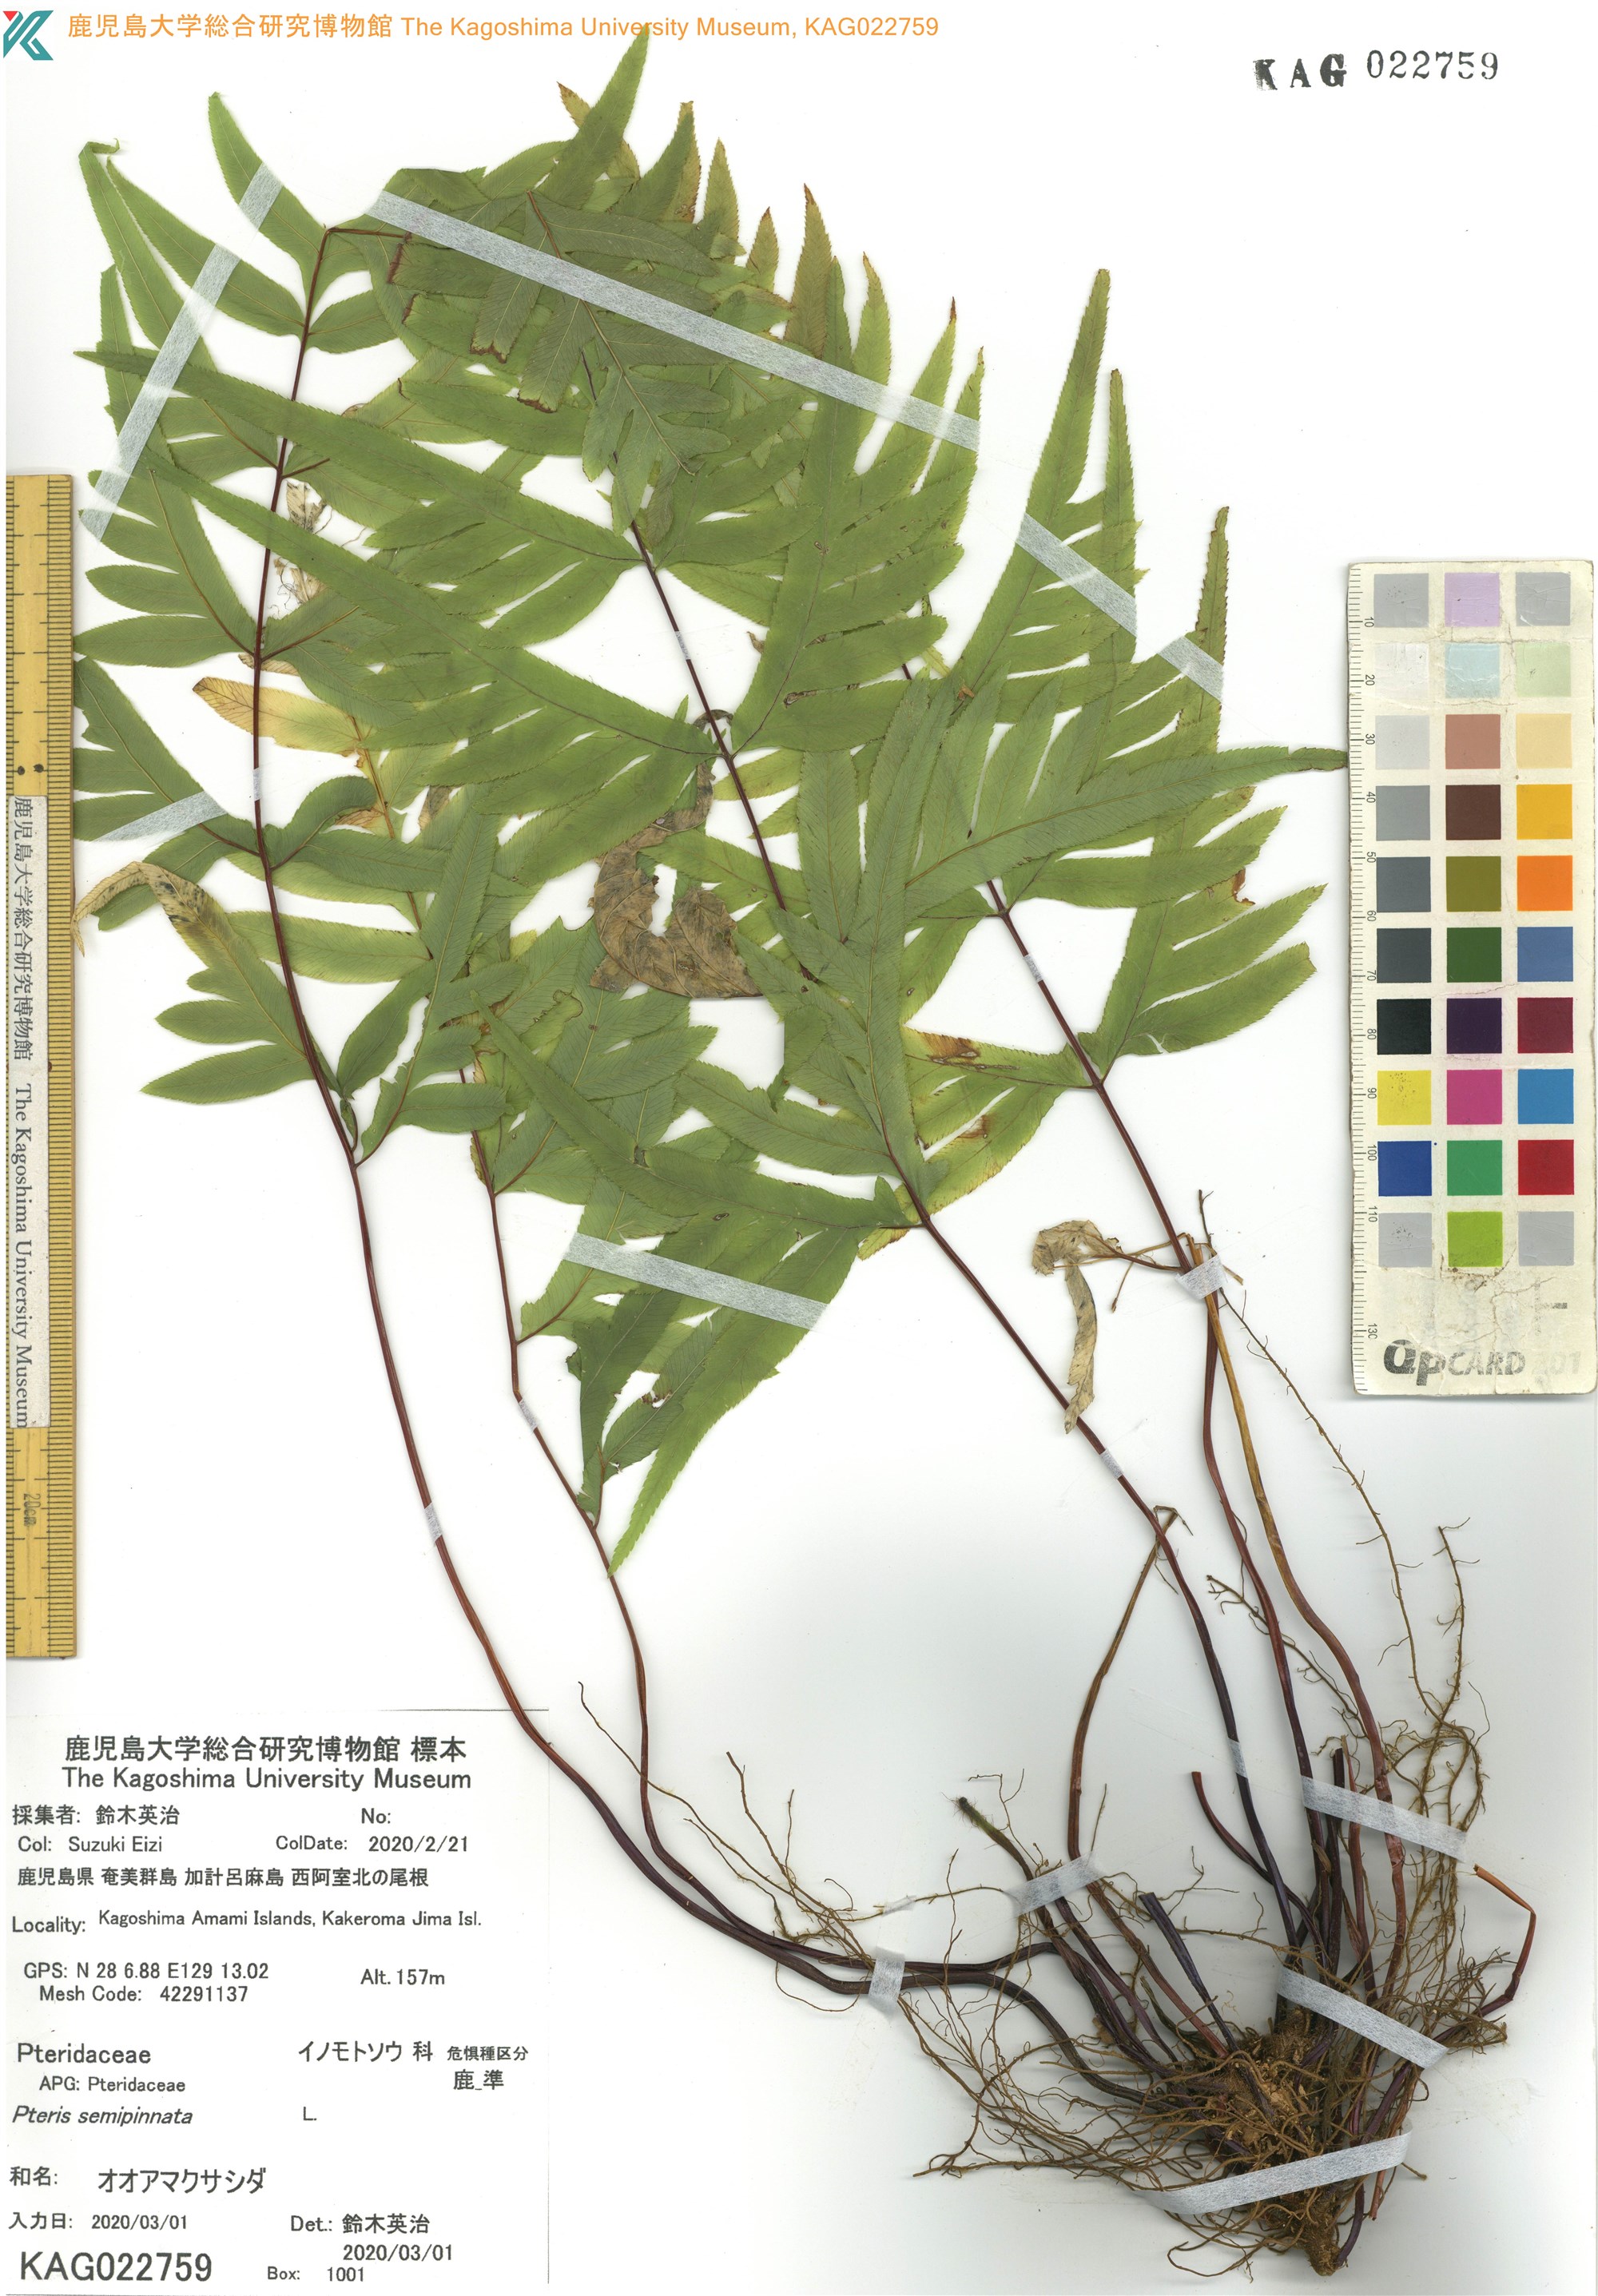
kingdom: Plantae
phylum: Tracheophyta
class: Polypodiopsida
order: Polypodiales
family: Pteridaceae
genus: Pteris
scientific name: Pteris semipinnata
